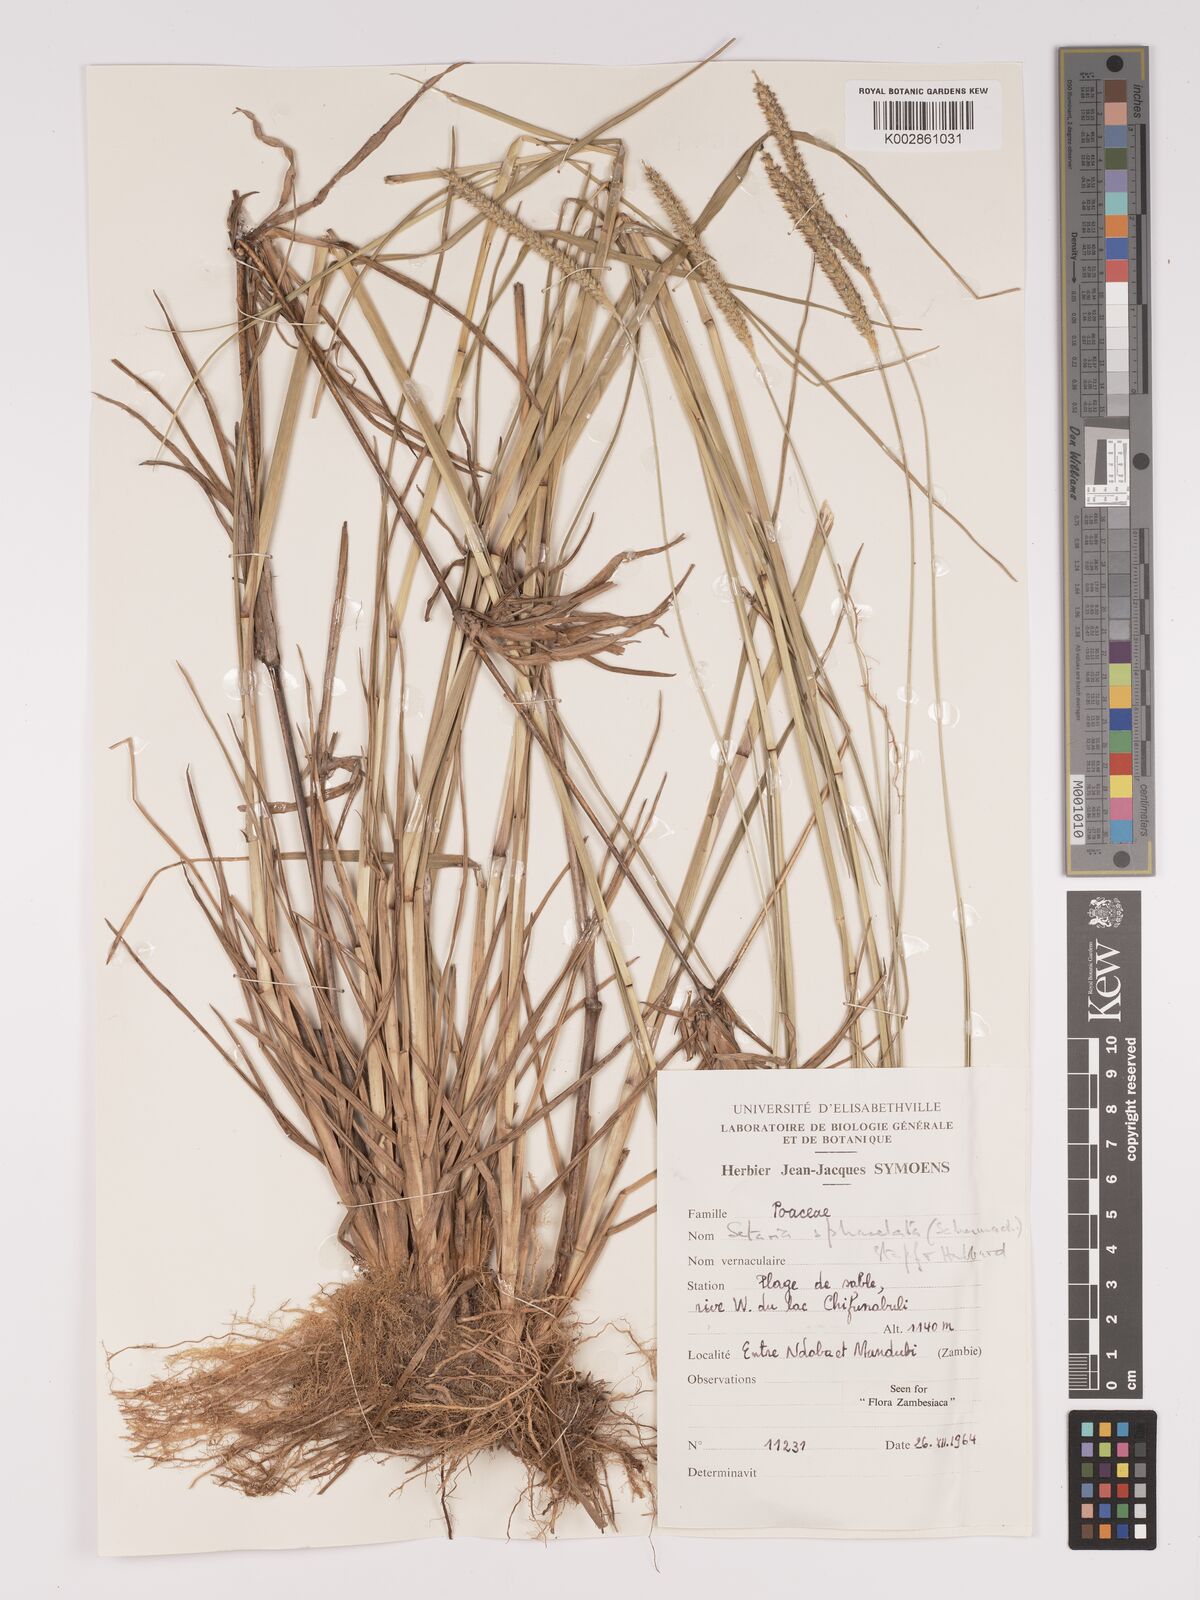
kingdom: Plantae
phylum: Tracheophyta
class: Liliopsida
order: Poales
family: Poaceae
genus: Setaria
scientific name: Setaria sphacelata
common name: African bristlegrass
